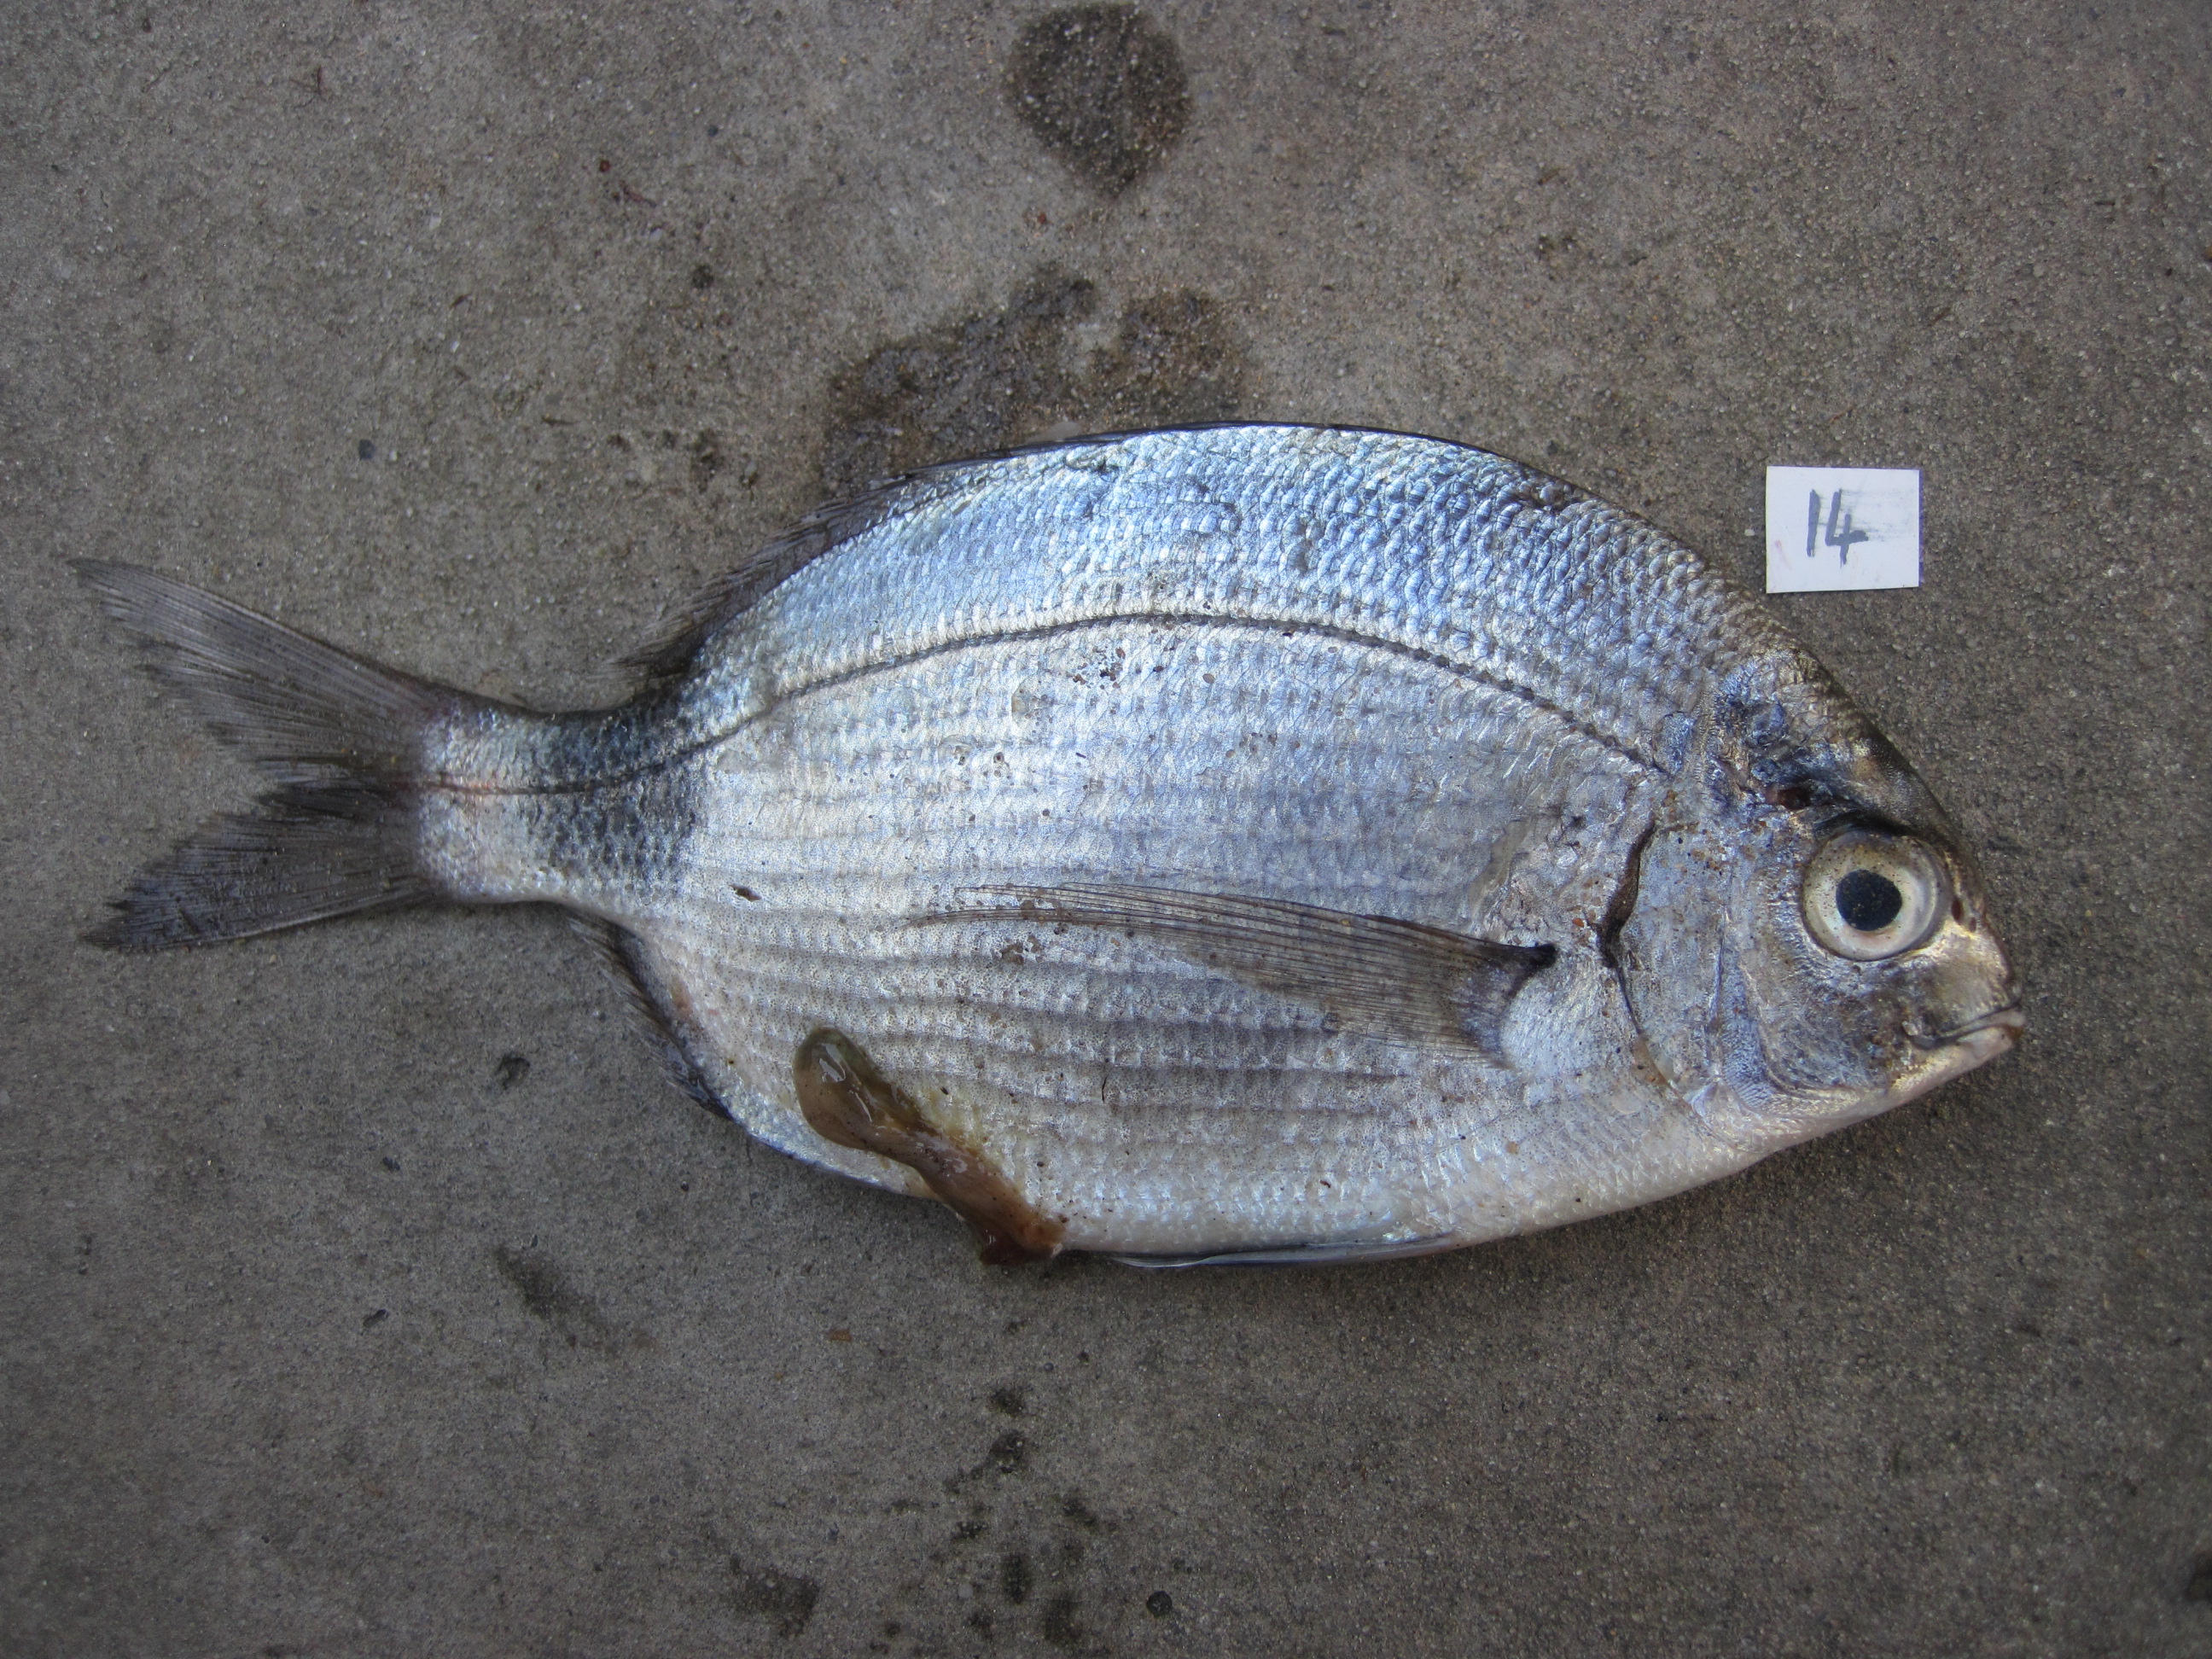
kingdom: Animalia
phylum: Chordata
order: Perciformes
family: Sparidae
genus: Diplodus
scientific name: Diplodus capensis
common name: Blacktail
